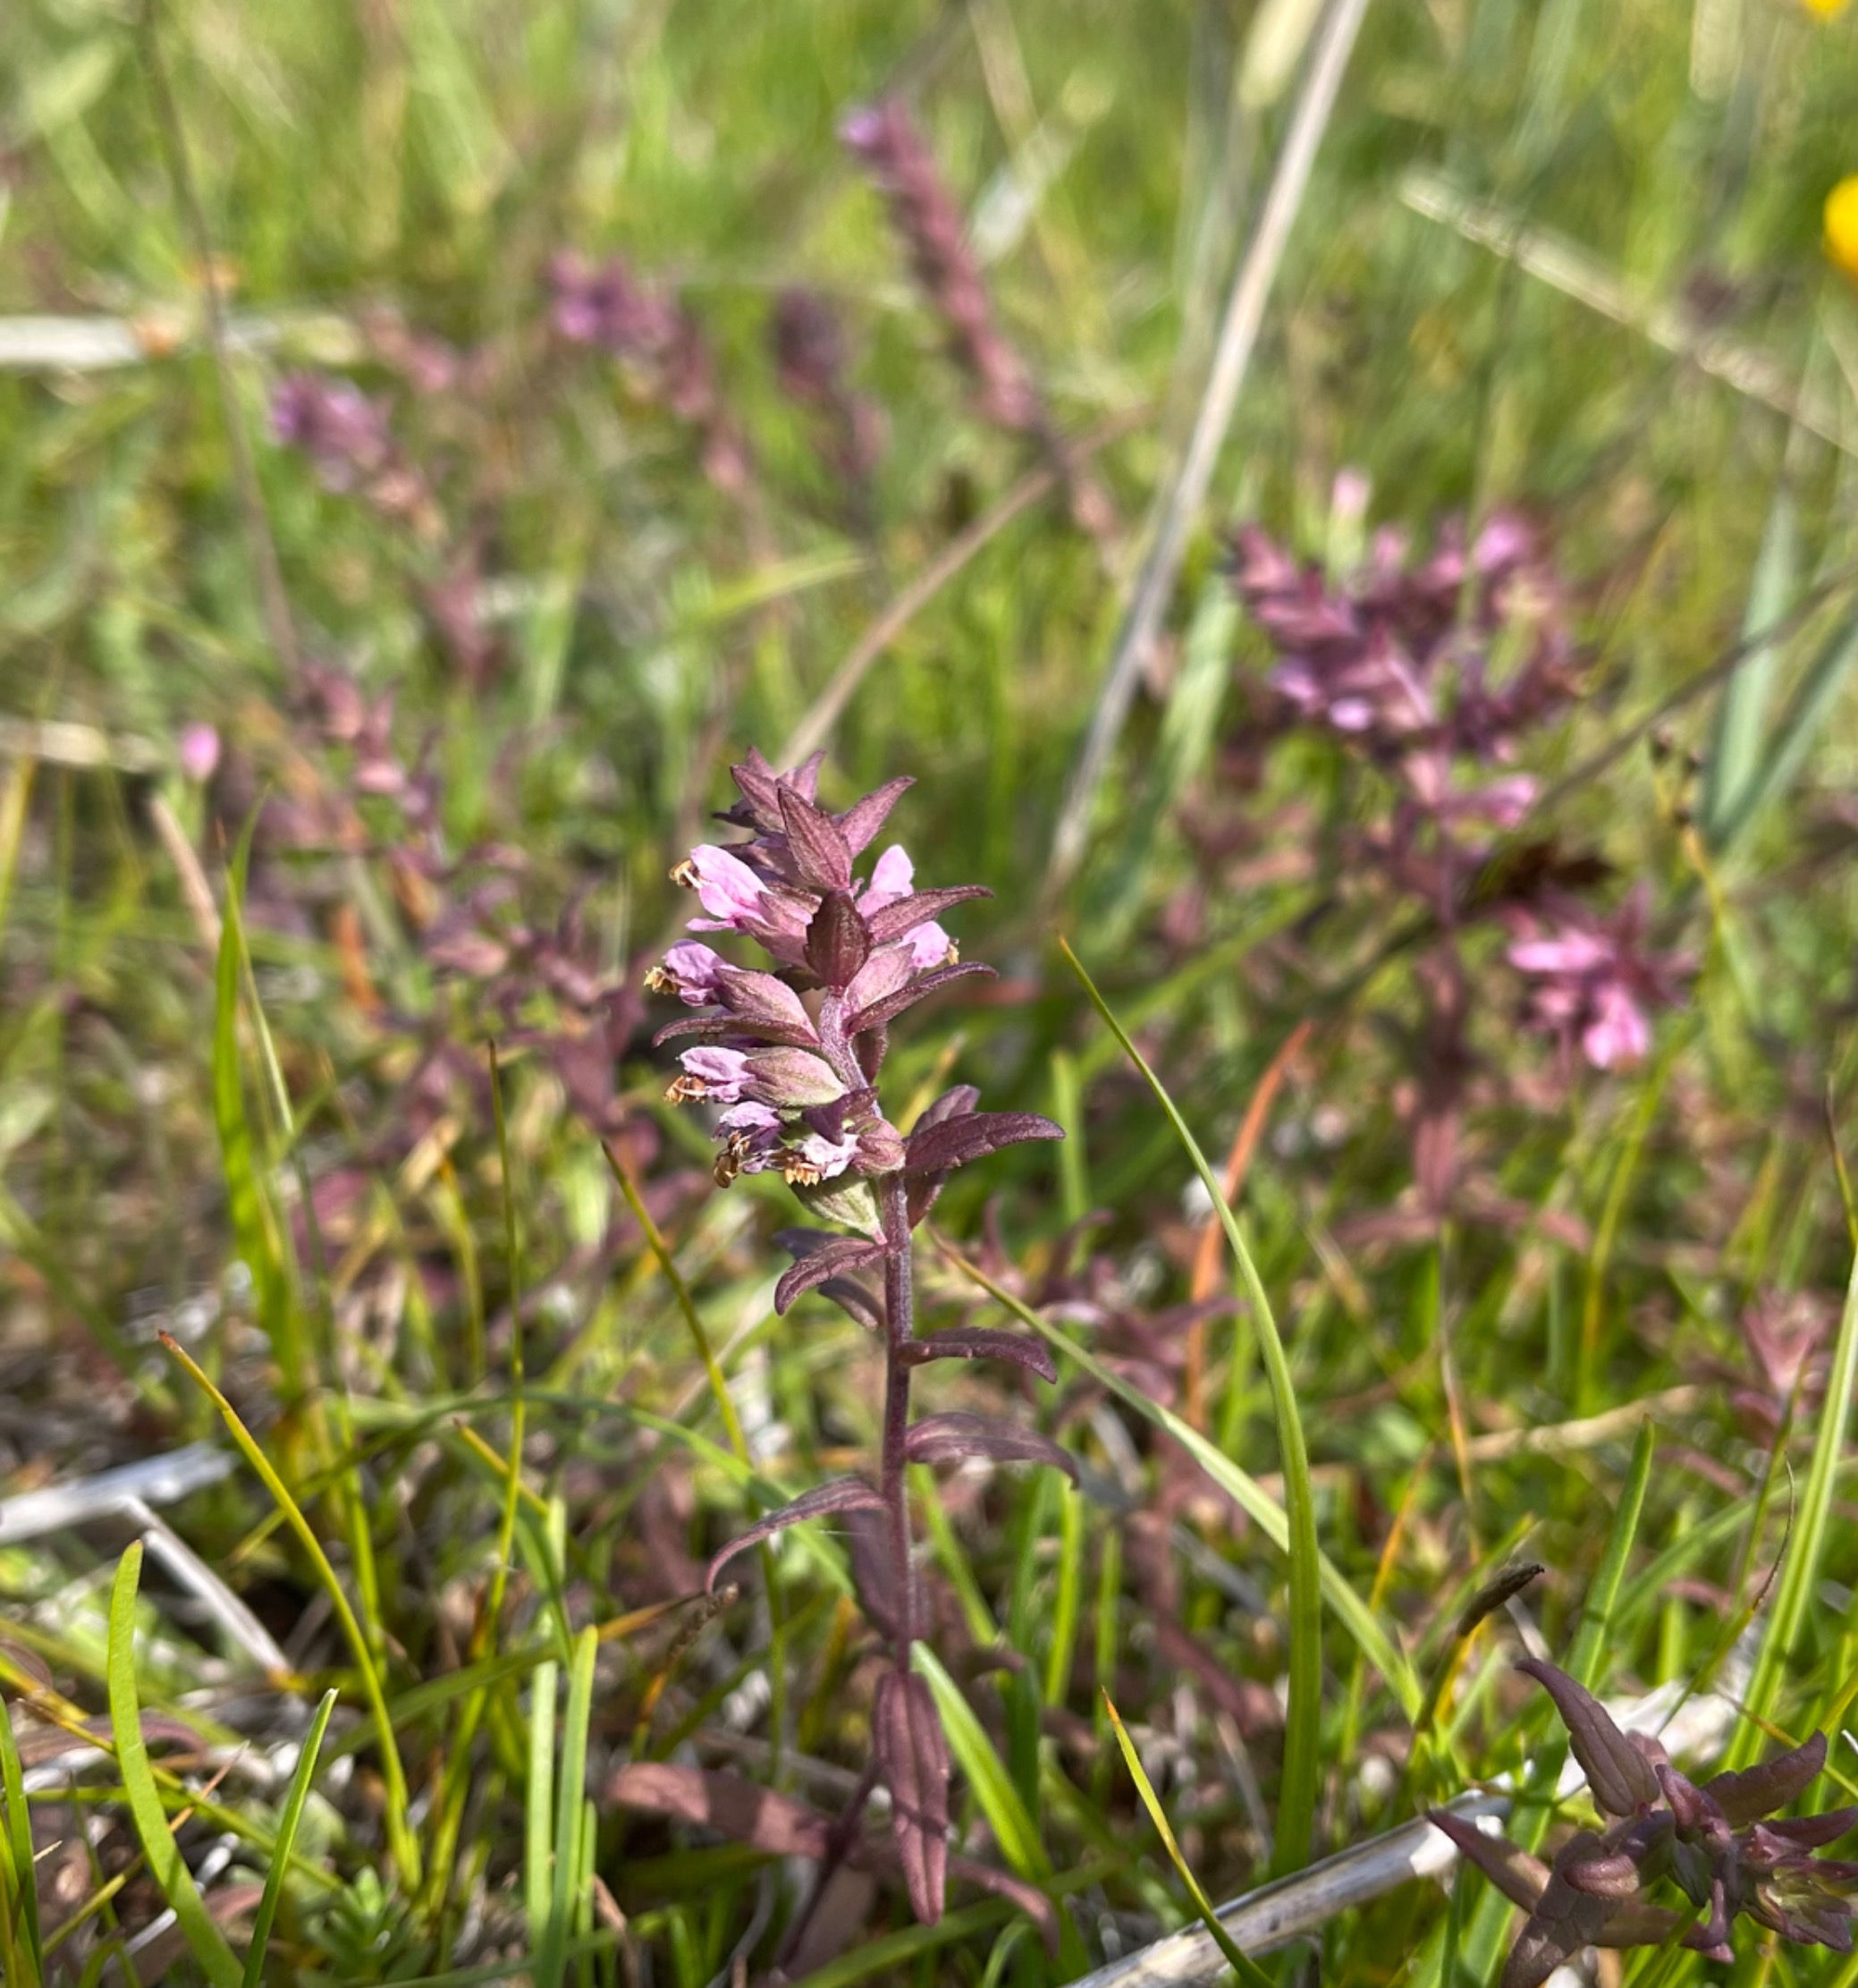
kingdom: Plantae
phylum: Tracheophyta
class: Magnoliopsida
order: Lamiales
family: Orobanchaceae
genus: Odontites
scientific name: Odontites litoralis
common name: Strand-rødtop
